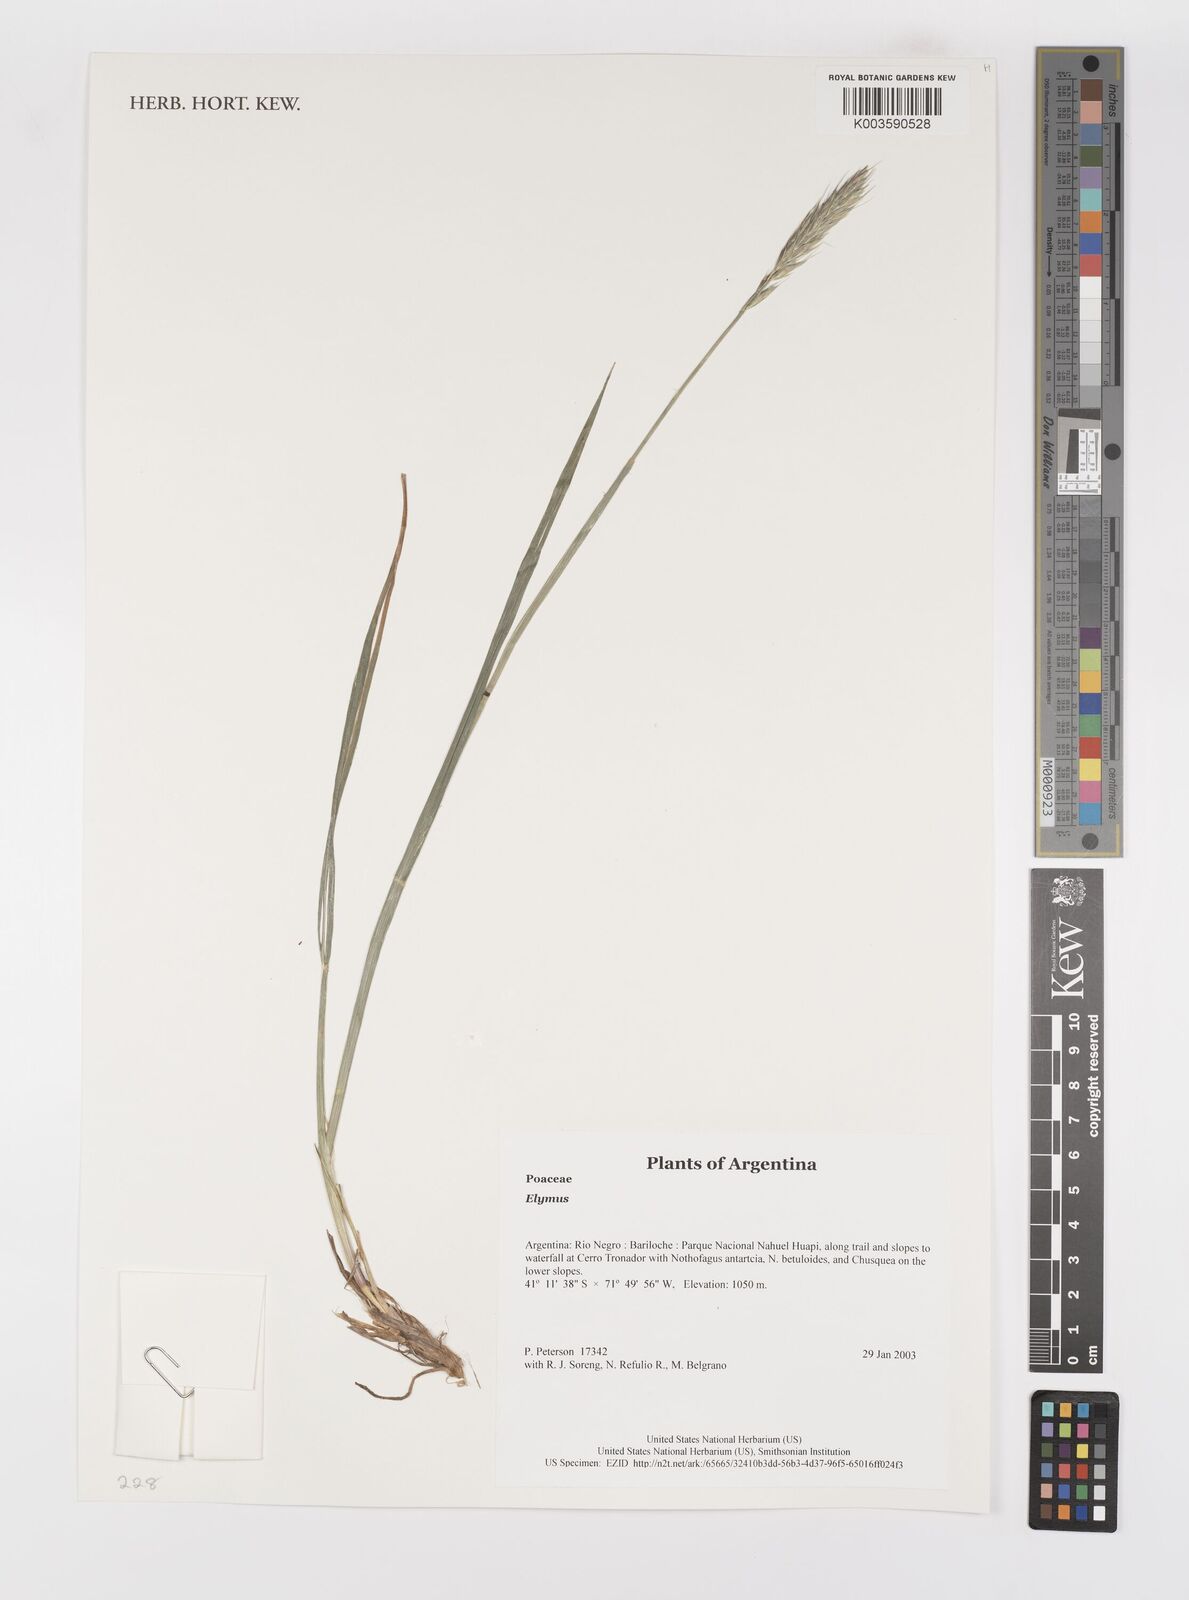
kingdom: Plantae
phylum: Tracheophyta
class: Liliopsida
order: Poales
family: Poaceae
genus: Elymus
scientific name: Elymus
